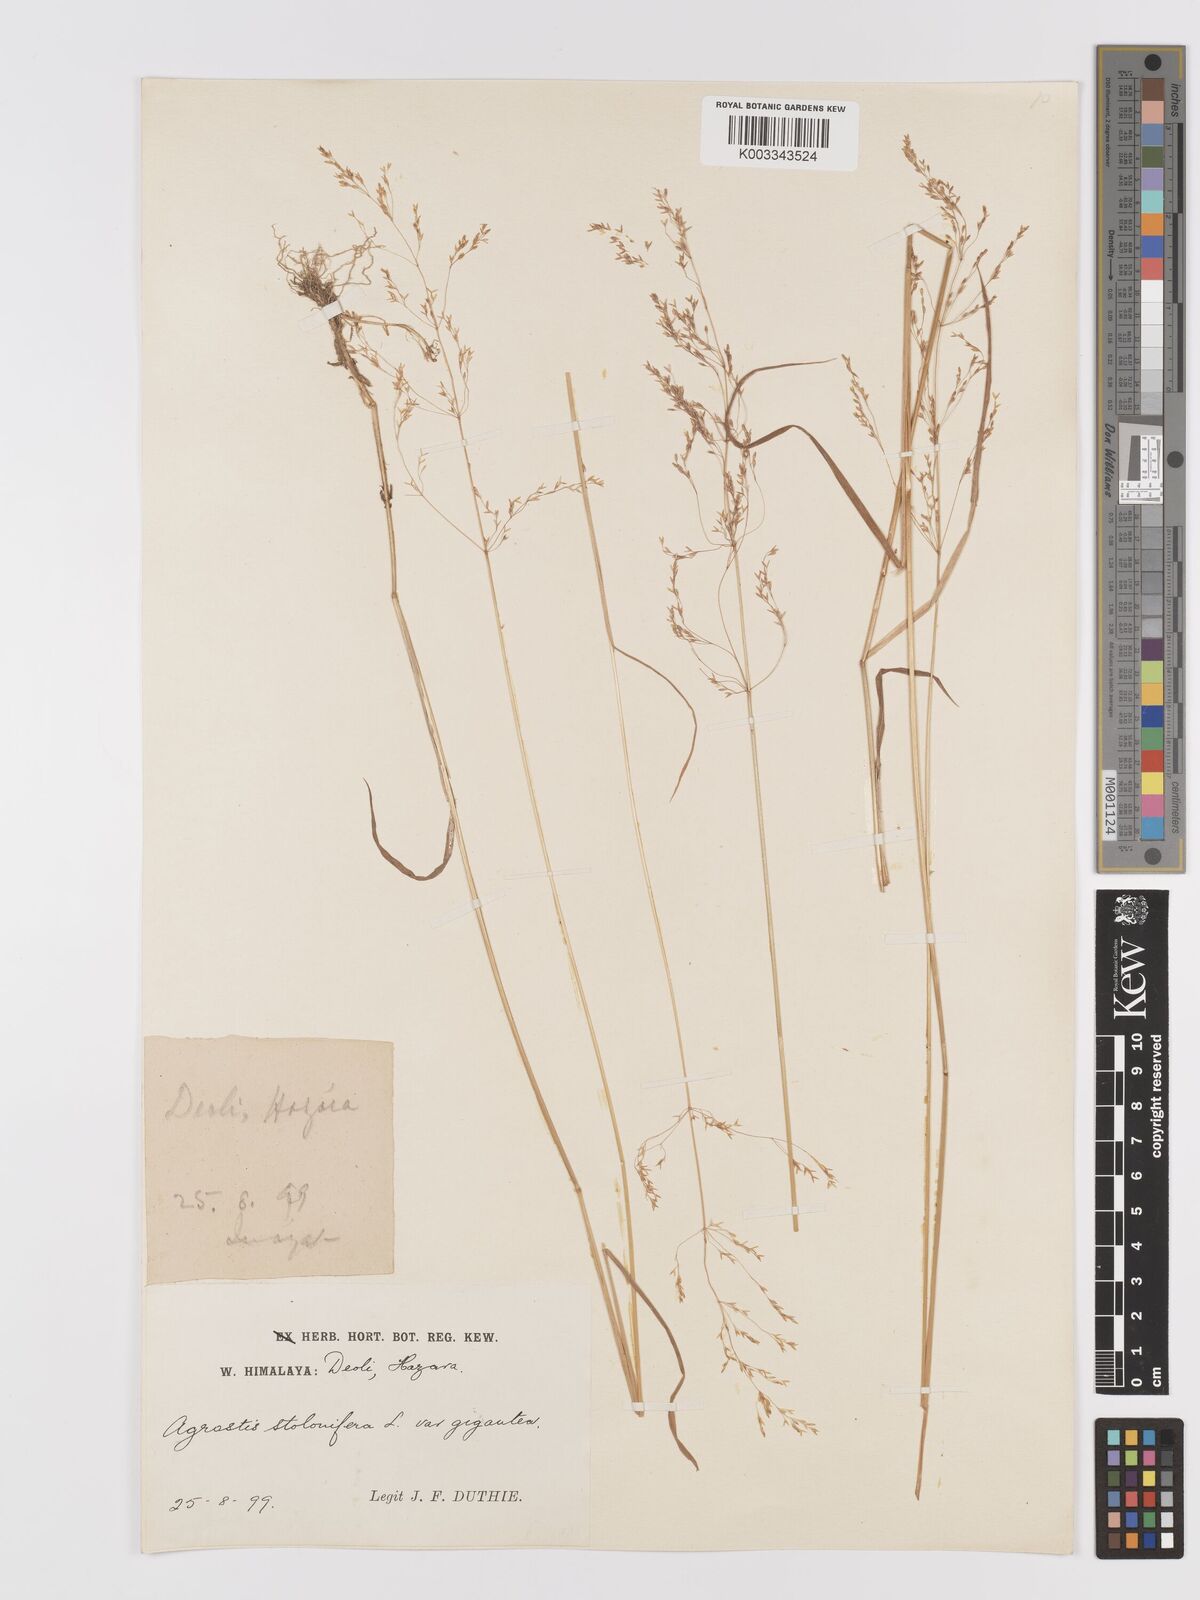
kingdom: Plantae
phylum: Tracheophyta
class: Liliopsida
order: Poales
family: Poaceae
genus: Agrostis
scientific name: Agrostis gigantea
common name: Black bent
